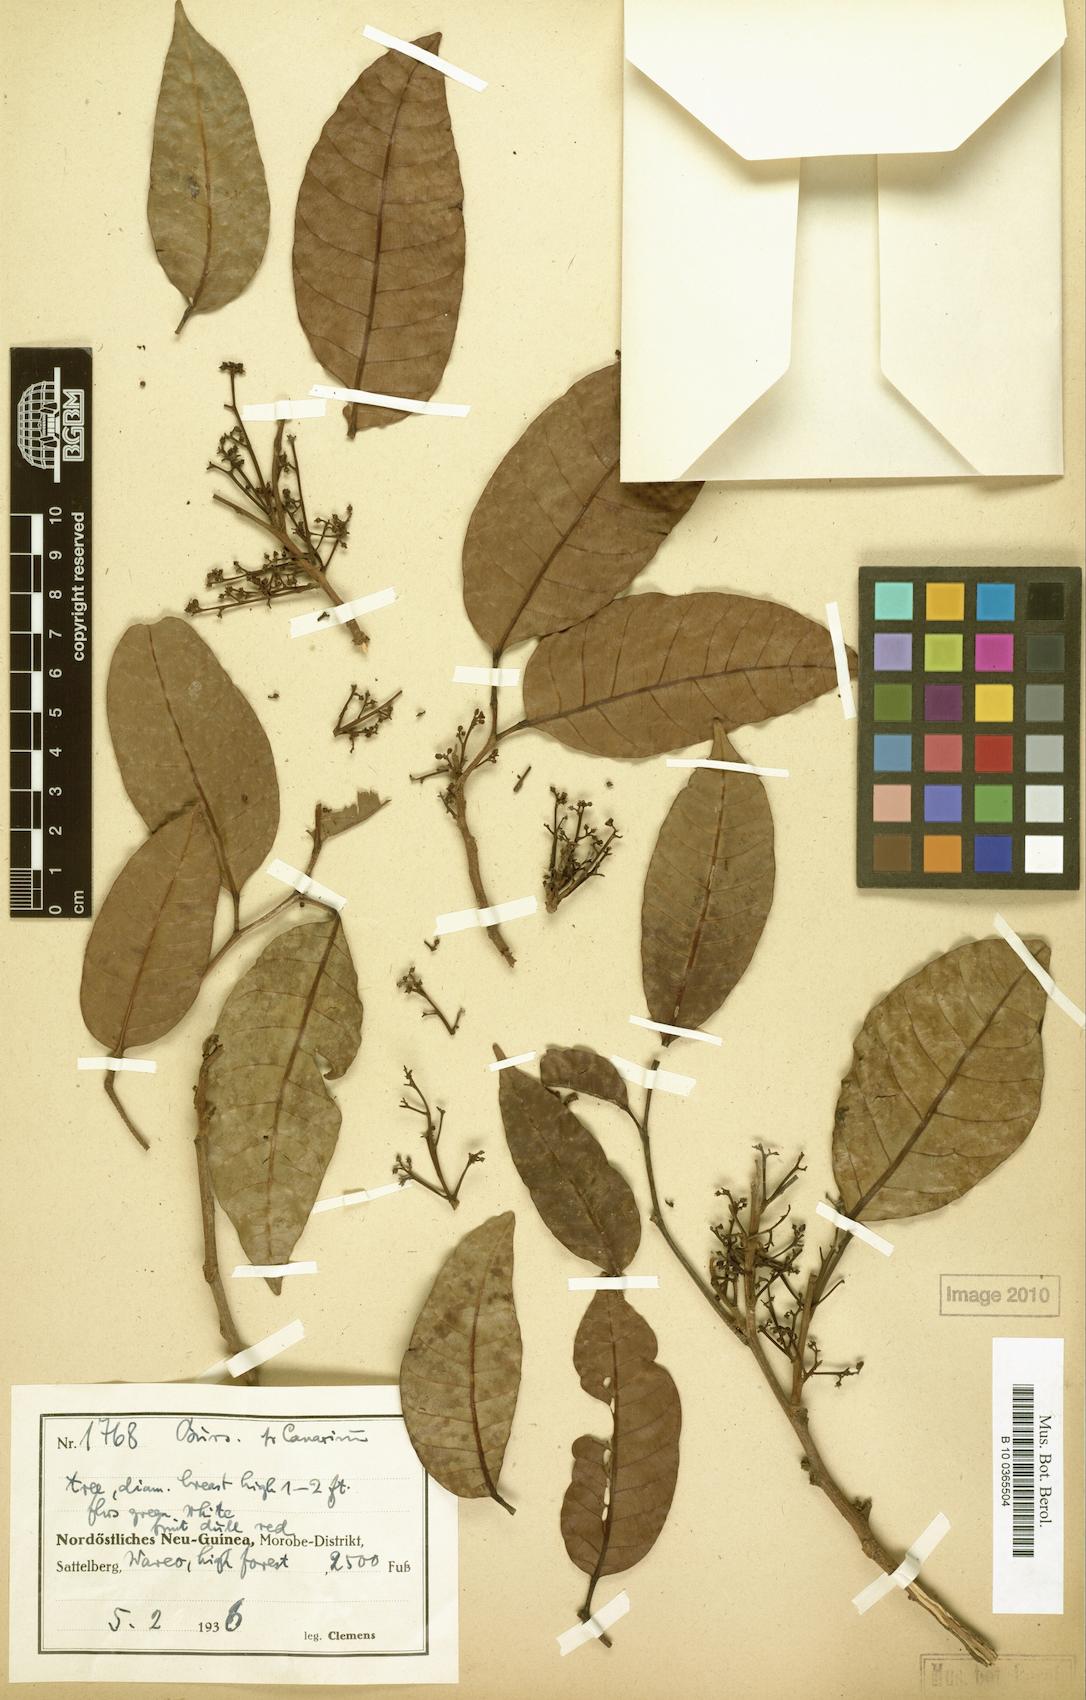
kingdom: Plantae
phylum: Tracheophyta
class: Magnoliopsida
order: Sapindales
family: Burseraceae
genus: Haplolobus
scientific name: Haplolobus floribundus
